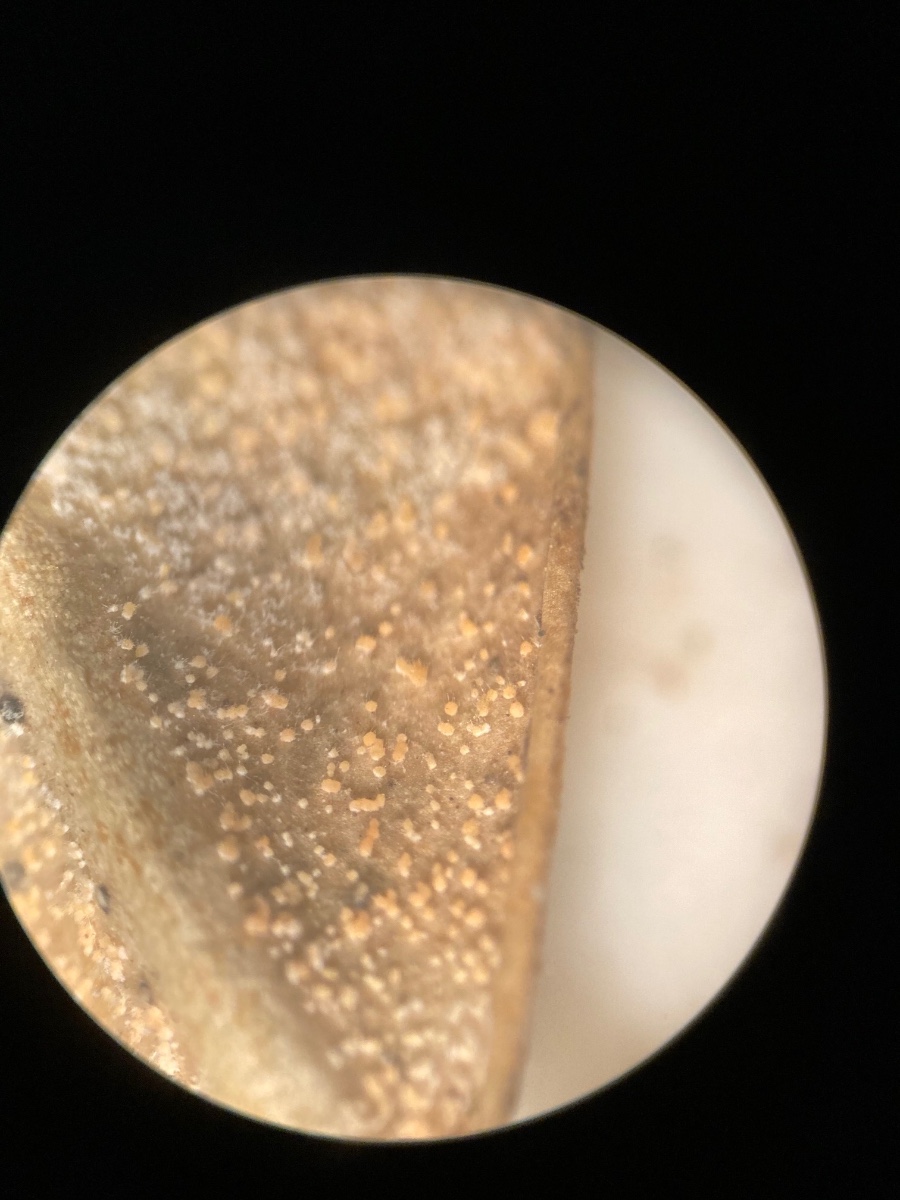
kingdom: Fungi
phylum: Ascomycota
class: Sordariomycetes
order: Hypocreales
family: Nectriaceae
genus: Pseudonectria
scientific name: Pseudonectria buxi
